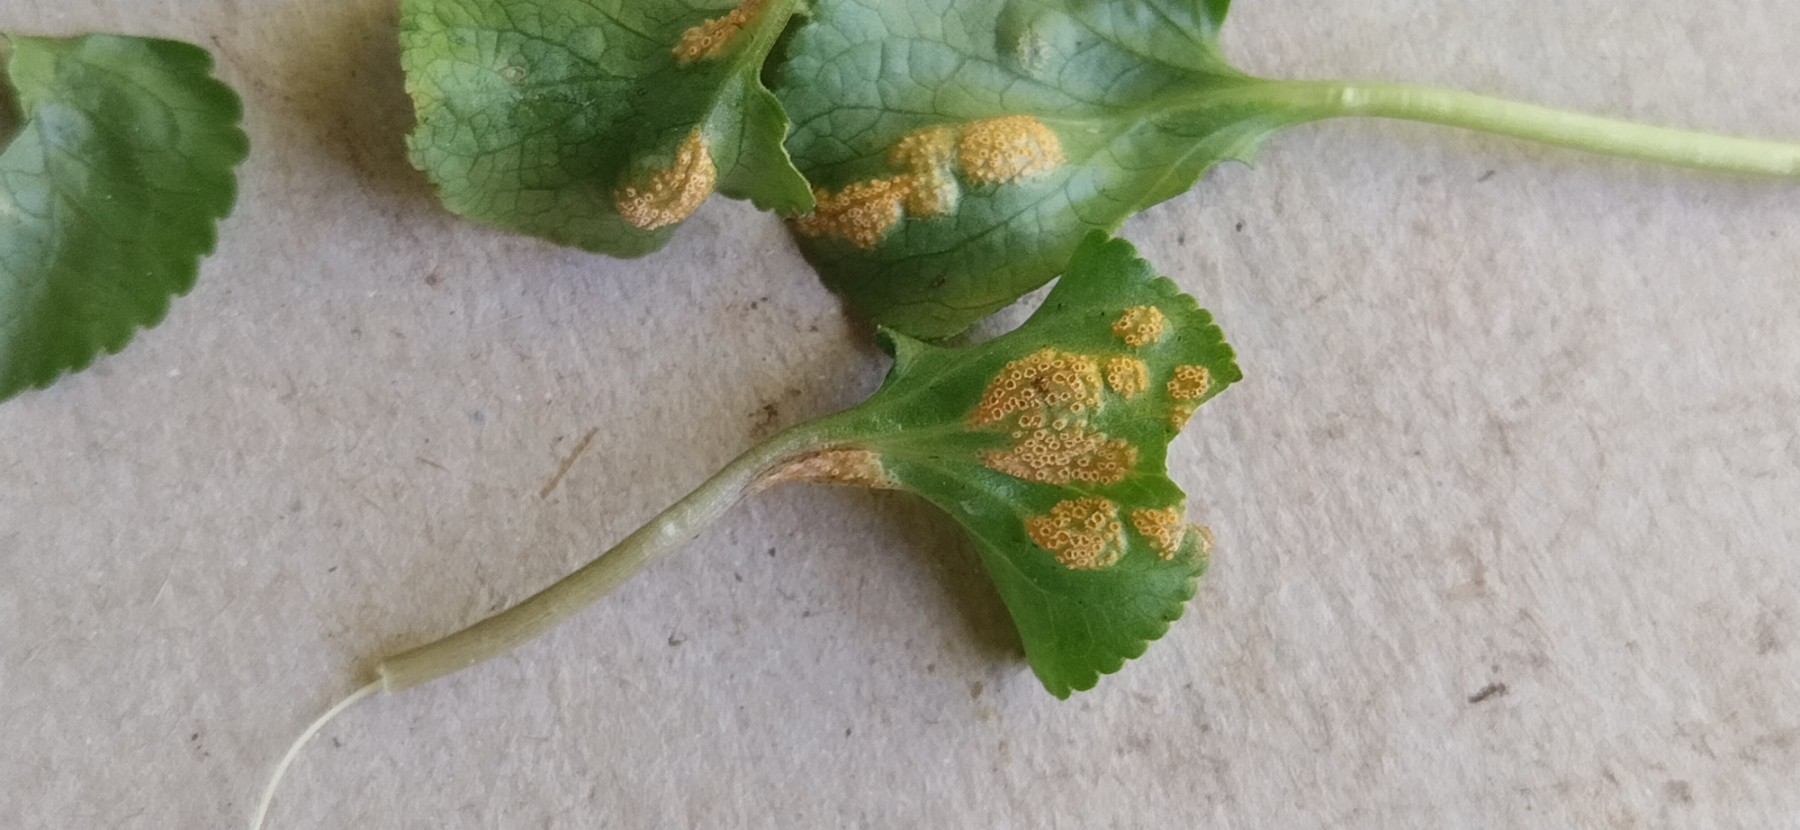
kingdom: Fungi
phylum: Basidiomycota
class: Pucciniomycetes
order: Pucciniales
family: Pucciniaceae
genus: Puccinia
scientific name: Puccinia violae
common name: viol-tvecellerust
